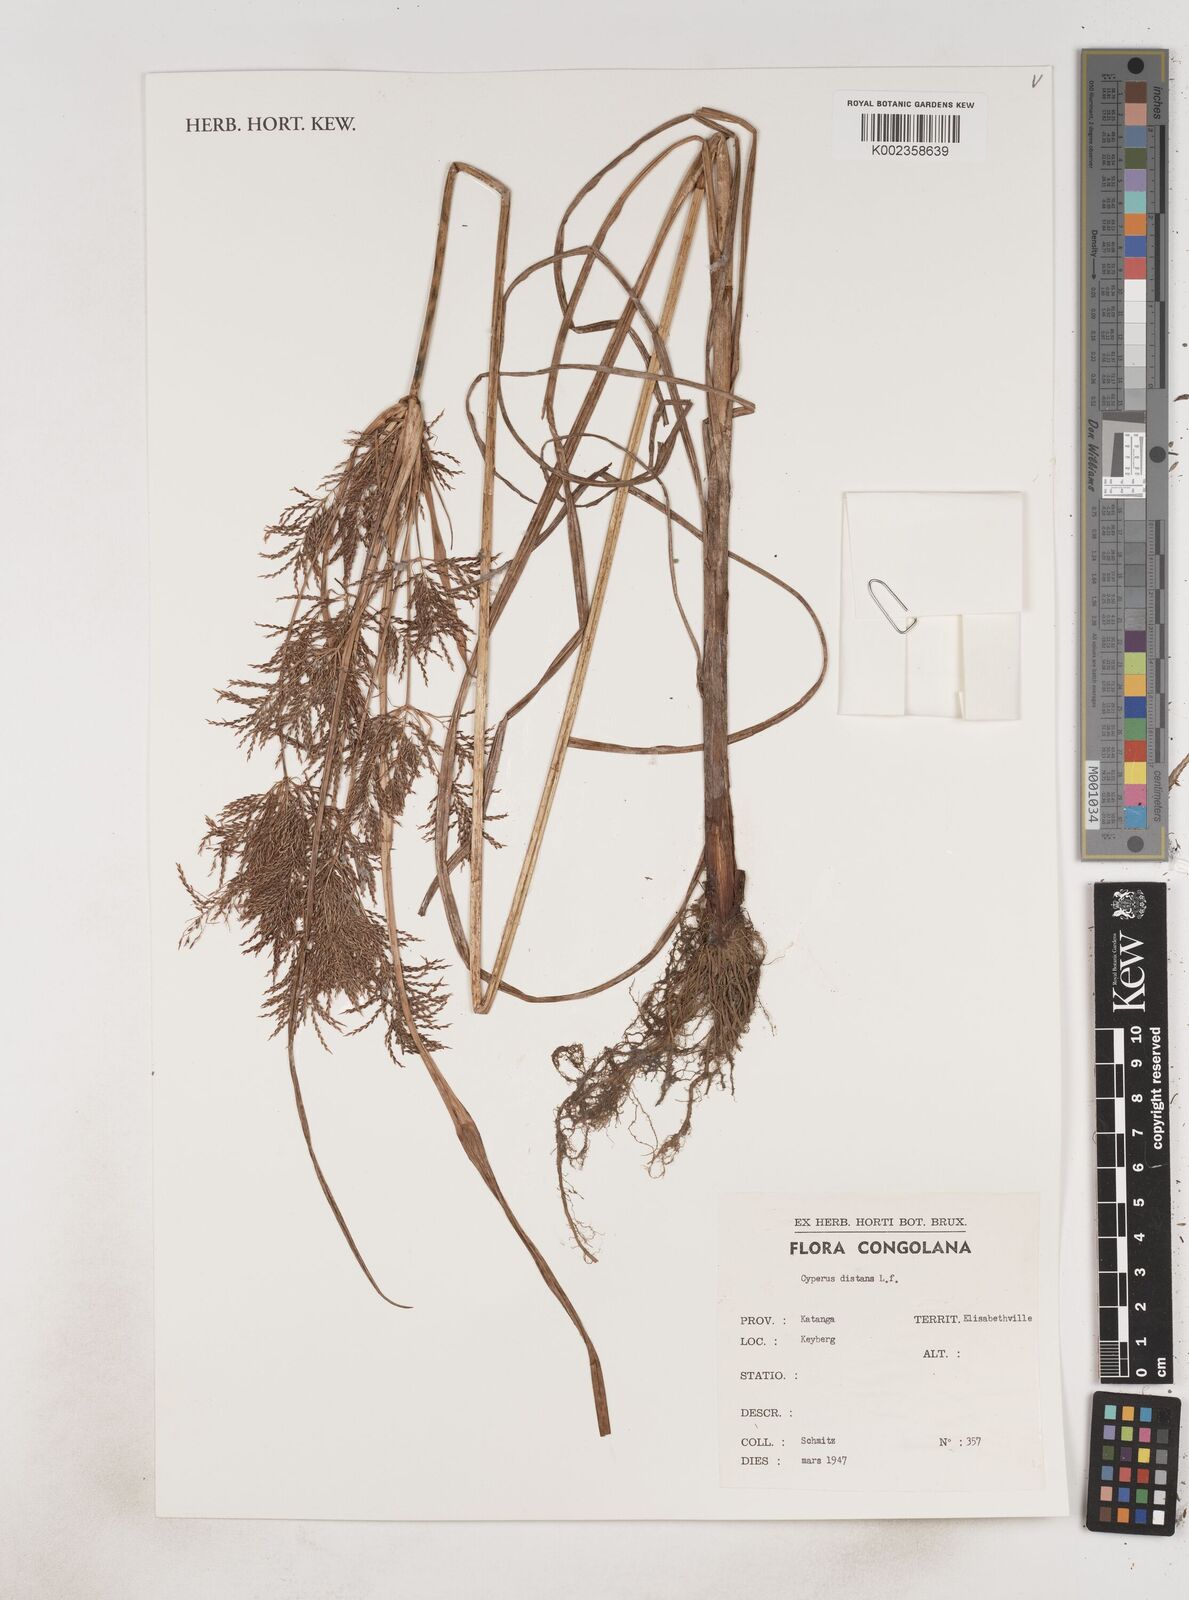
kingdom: Plantae
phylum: Tracheophyta
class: Liliopsida
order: Poales
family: Cyperaceae
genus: Cyperus
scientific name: Cyperus distans
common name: Slender cyperus
